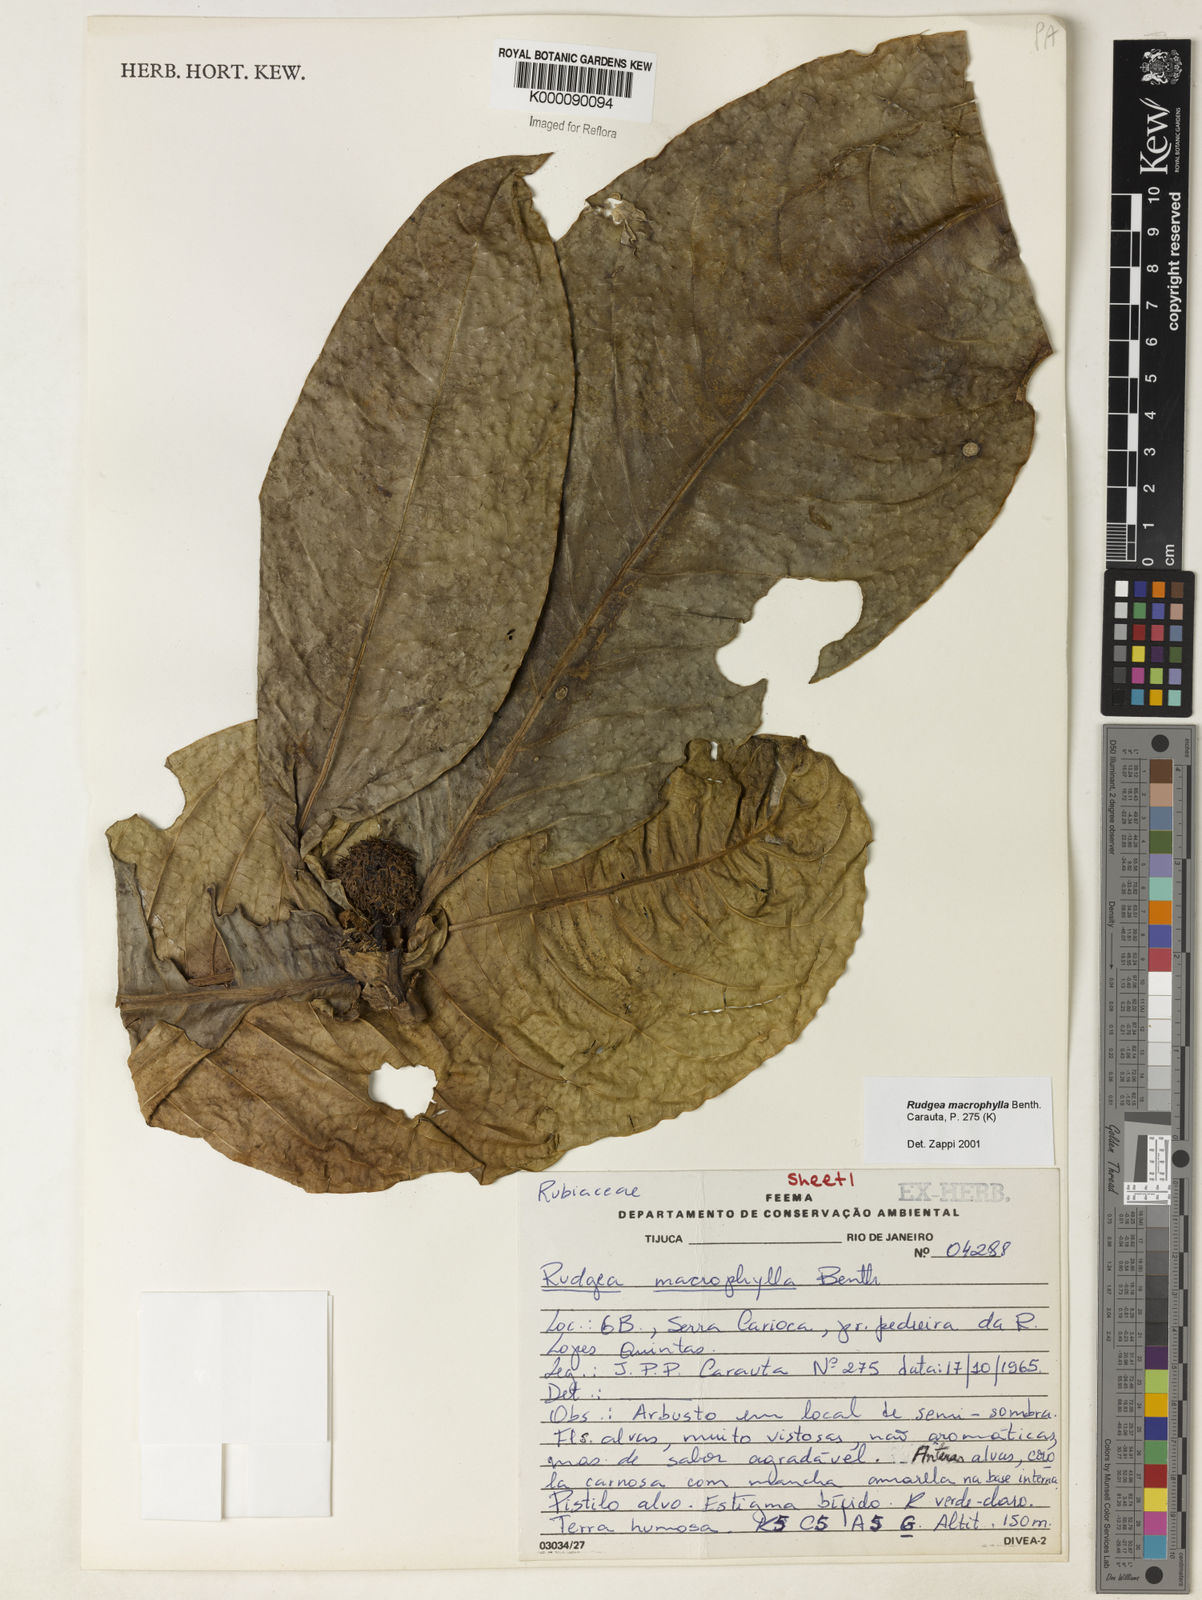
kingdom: Plantae
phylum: Tracheophyta
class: Magnoliopsida
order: Gentianales
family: Rubiaceae
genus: Rudgea
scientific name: Rudgea macrophylla
